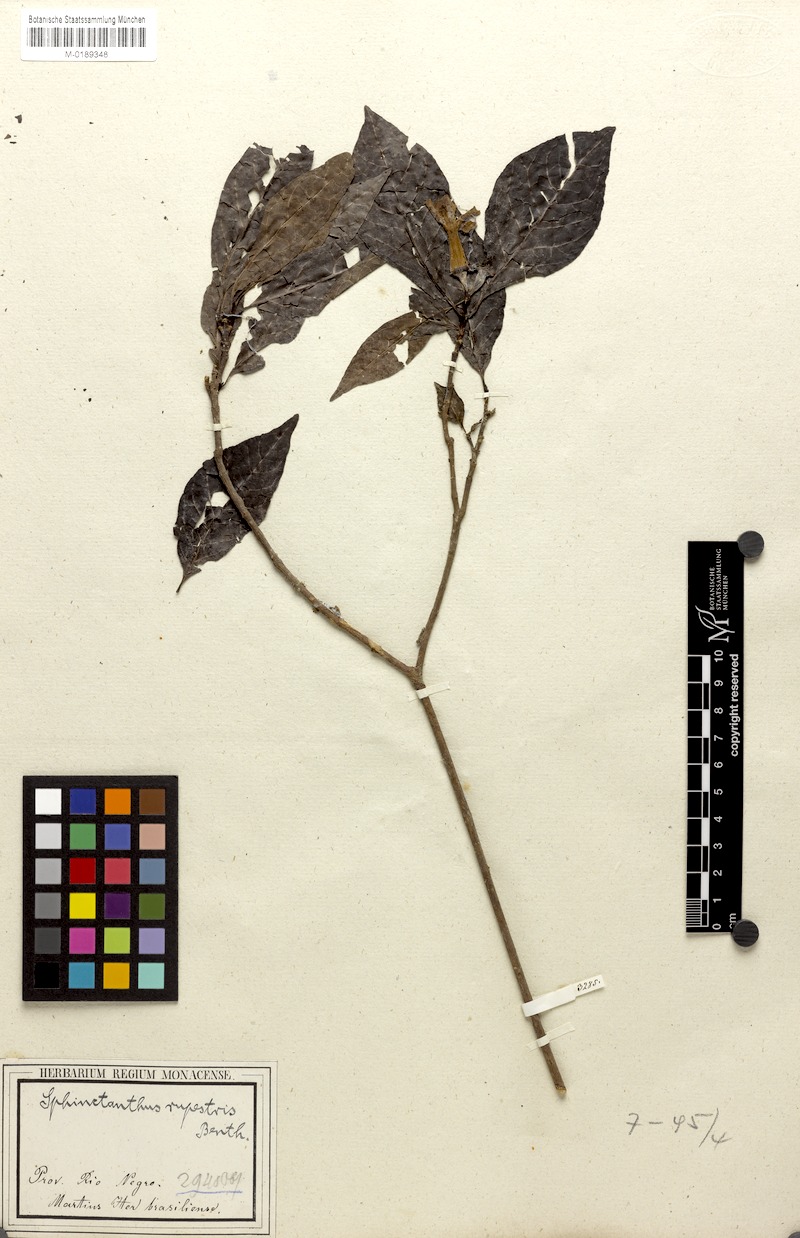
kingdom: Plantae
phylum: Tracheophyta
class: Magnoliopsida
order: Gentianales
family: Rubiaceae
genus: Sphinctanthus
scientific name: Sphinctanthus striiflorus
